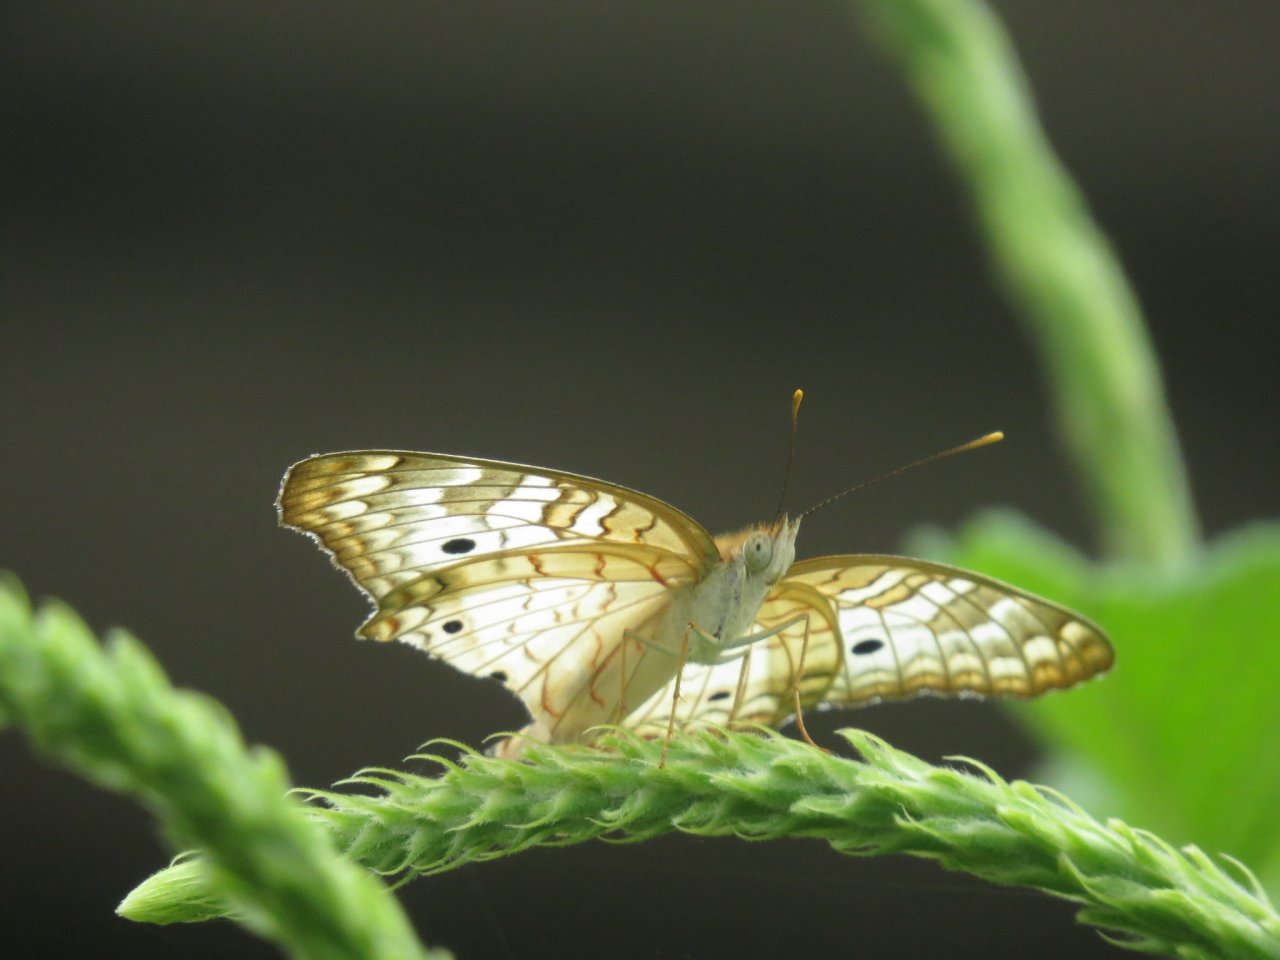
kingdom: Animalia
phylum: Arthropoda
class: Insecta
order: Lepidoptera
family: Nymphalidae
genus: Anartia
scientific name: Anartia jatrophae
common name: White Peacock
